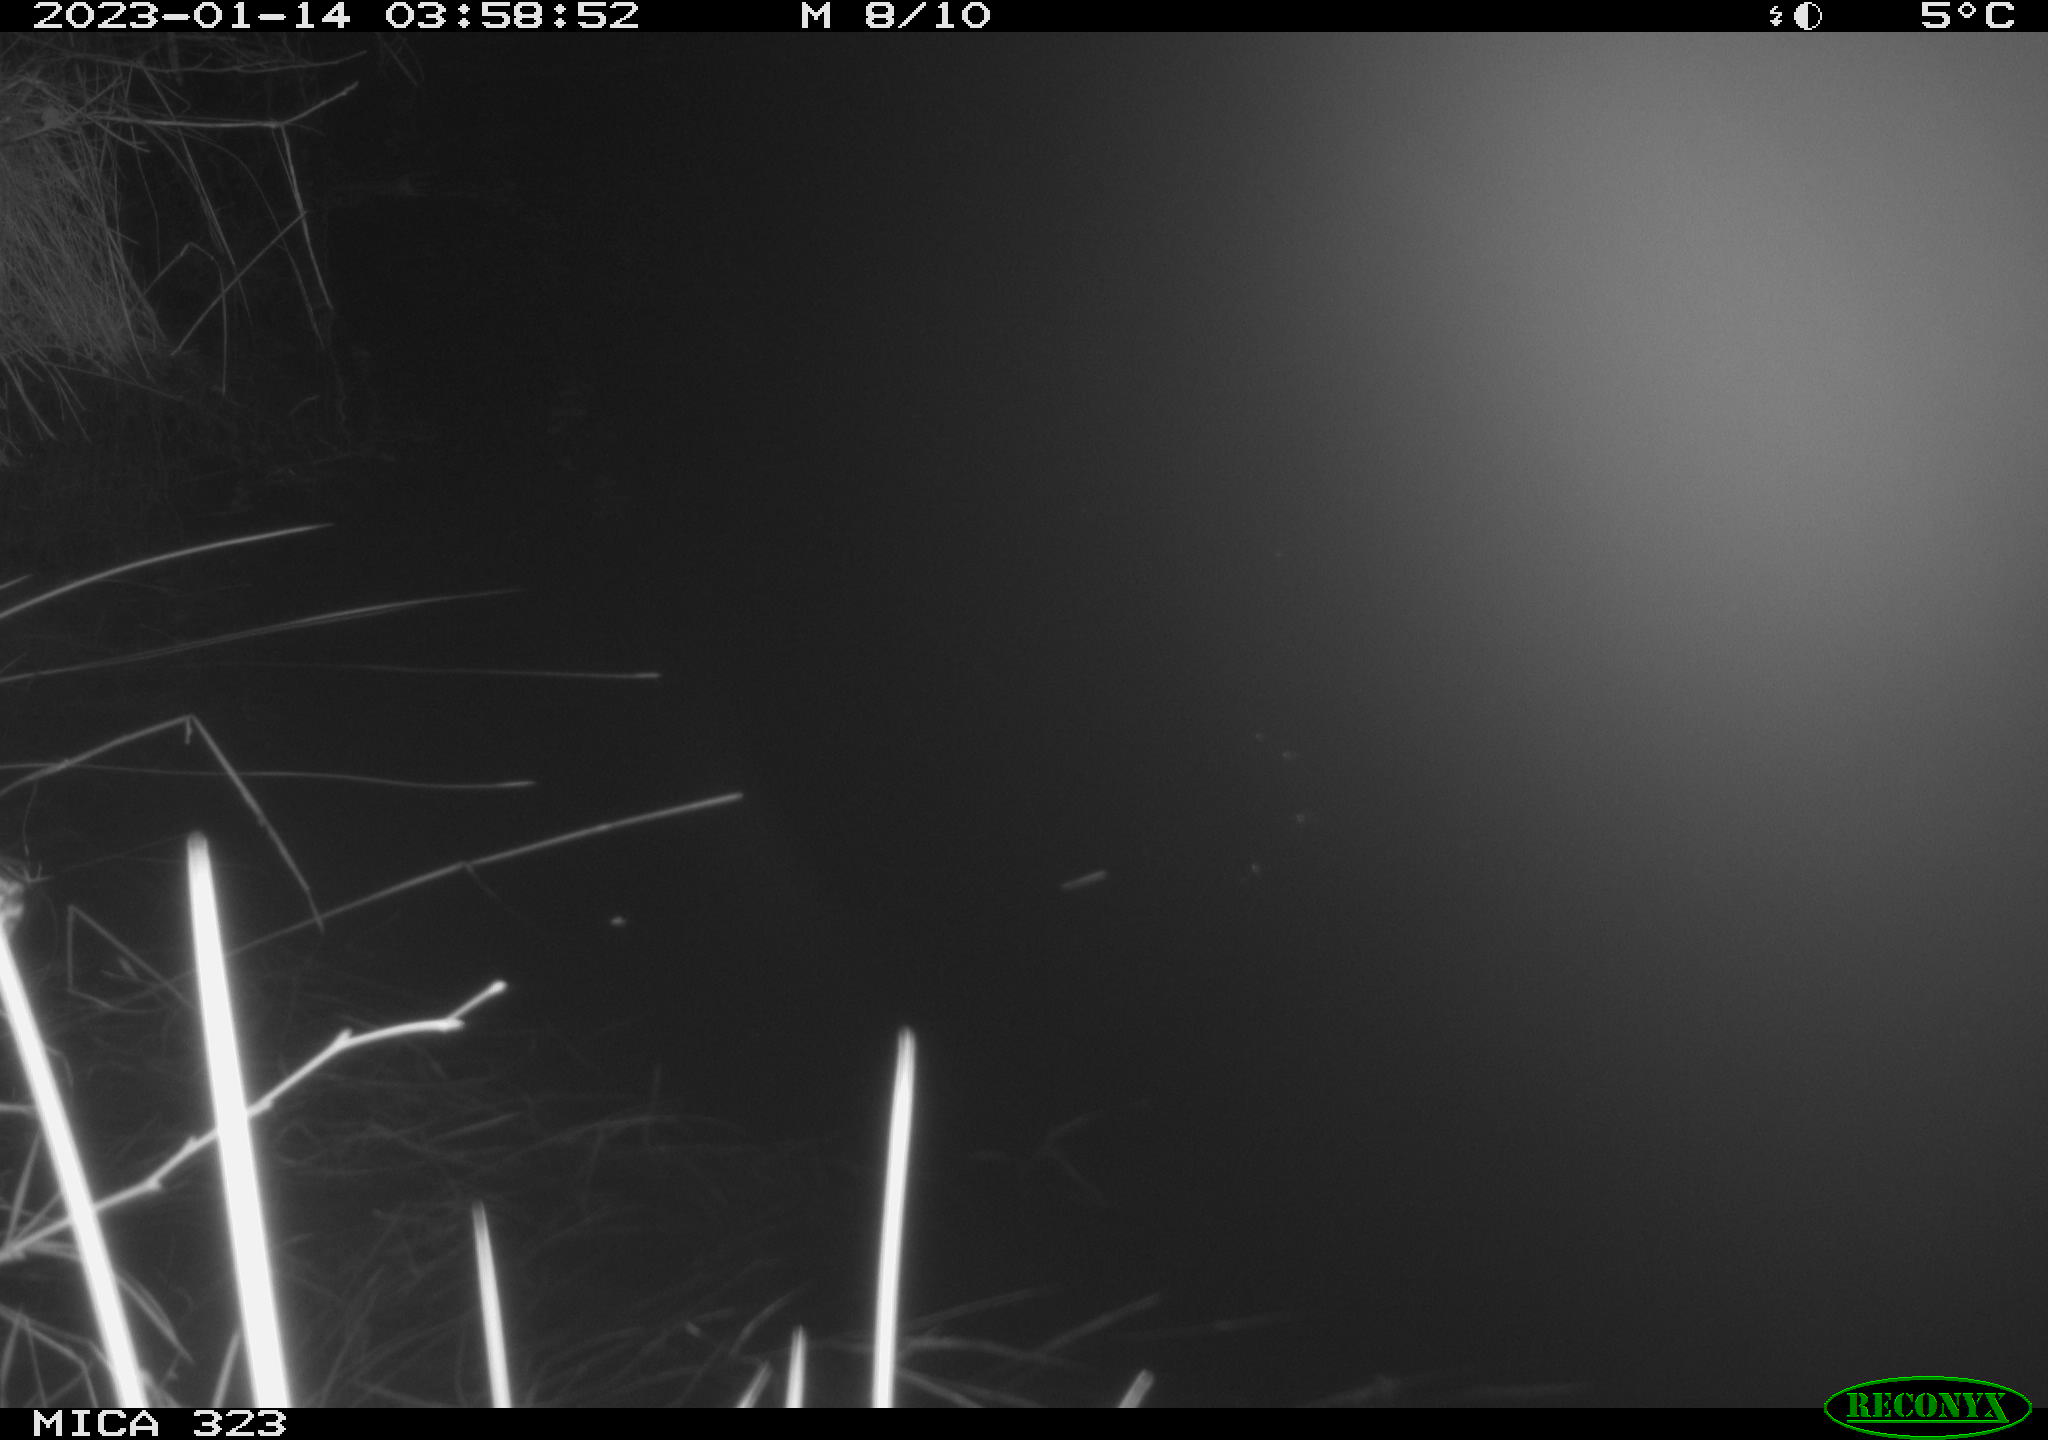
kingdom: Animalia
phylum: Chordata
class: Mammalia
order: Rodentia
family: Cricetidae
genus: Ondatra
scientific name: Ondatra zibethicus
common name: Muskrat
